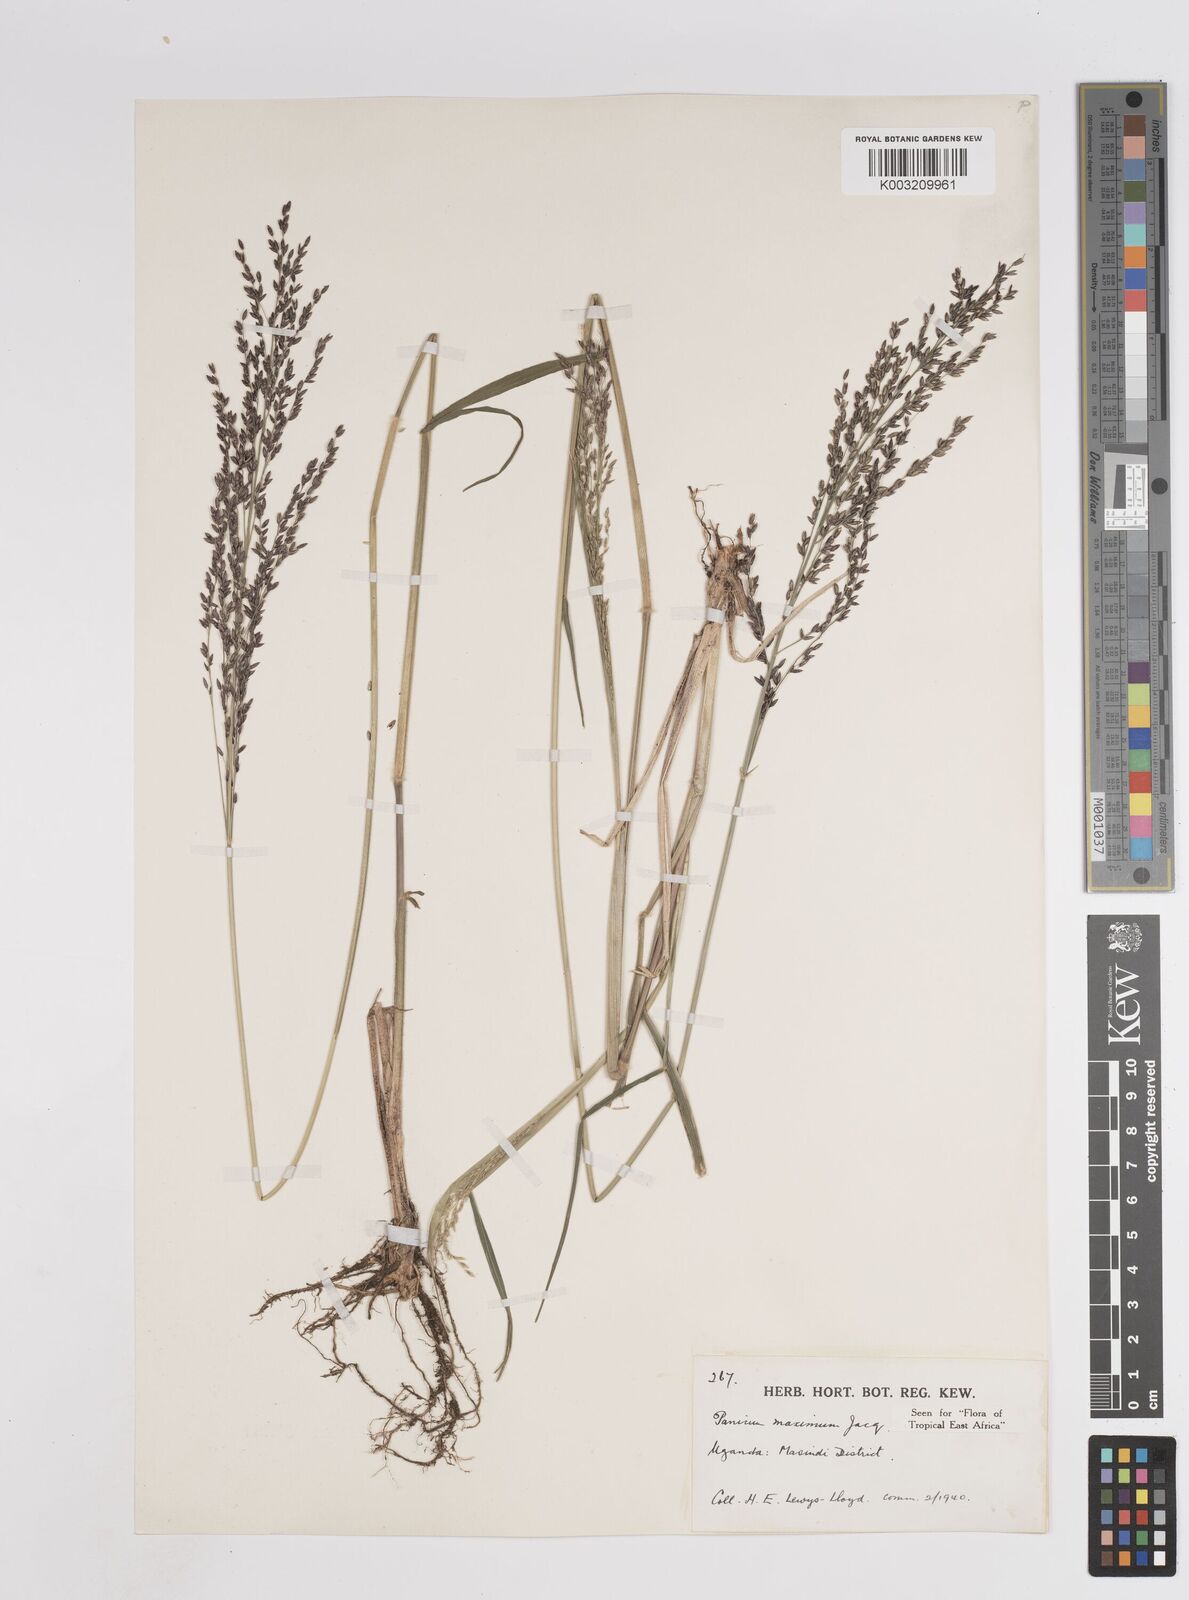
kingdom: Plantae
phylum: Tracheophyta
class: Liliopsida
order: Poales
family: Poaceae
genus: Megathyrsus
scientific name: Megathyrsus maximus
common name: Guineagrass
